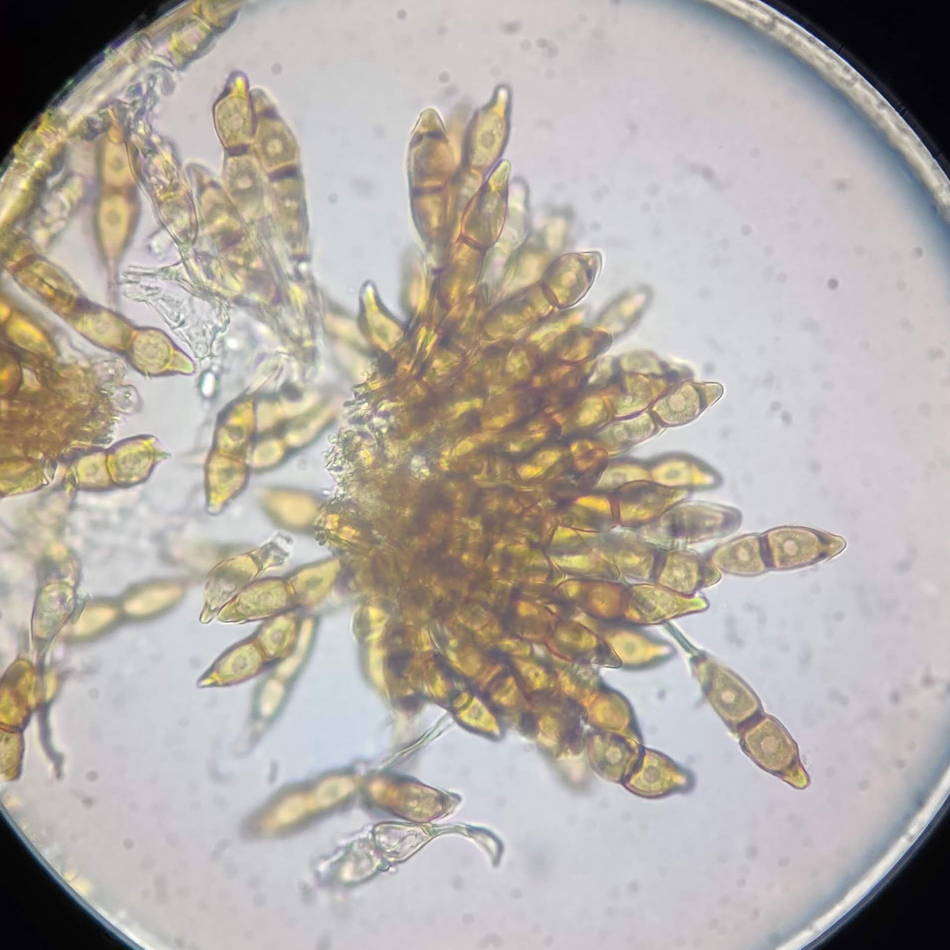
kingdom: Fungi
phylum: Basidiomycota
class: Pucciniomycetes
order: Pucciniales
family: Pucciniaceae
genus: Puccinia
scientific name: Puccinia circaeae
